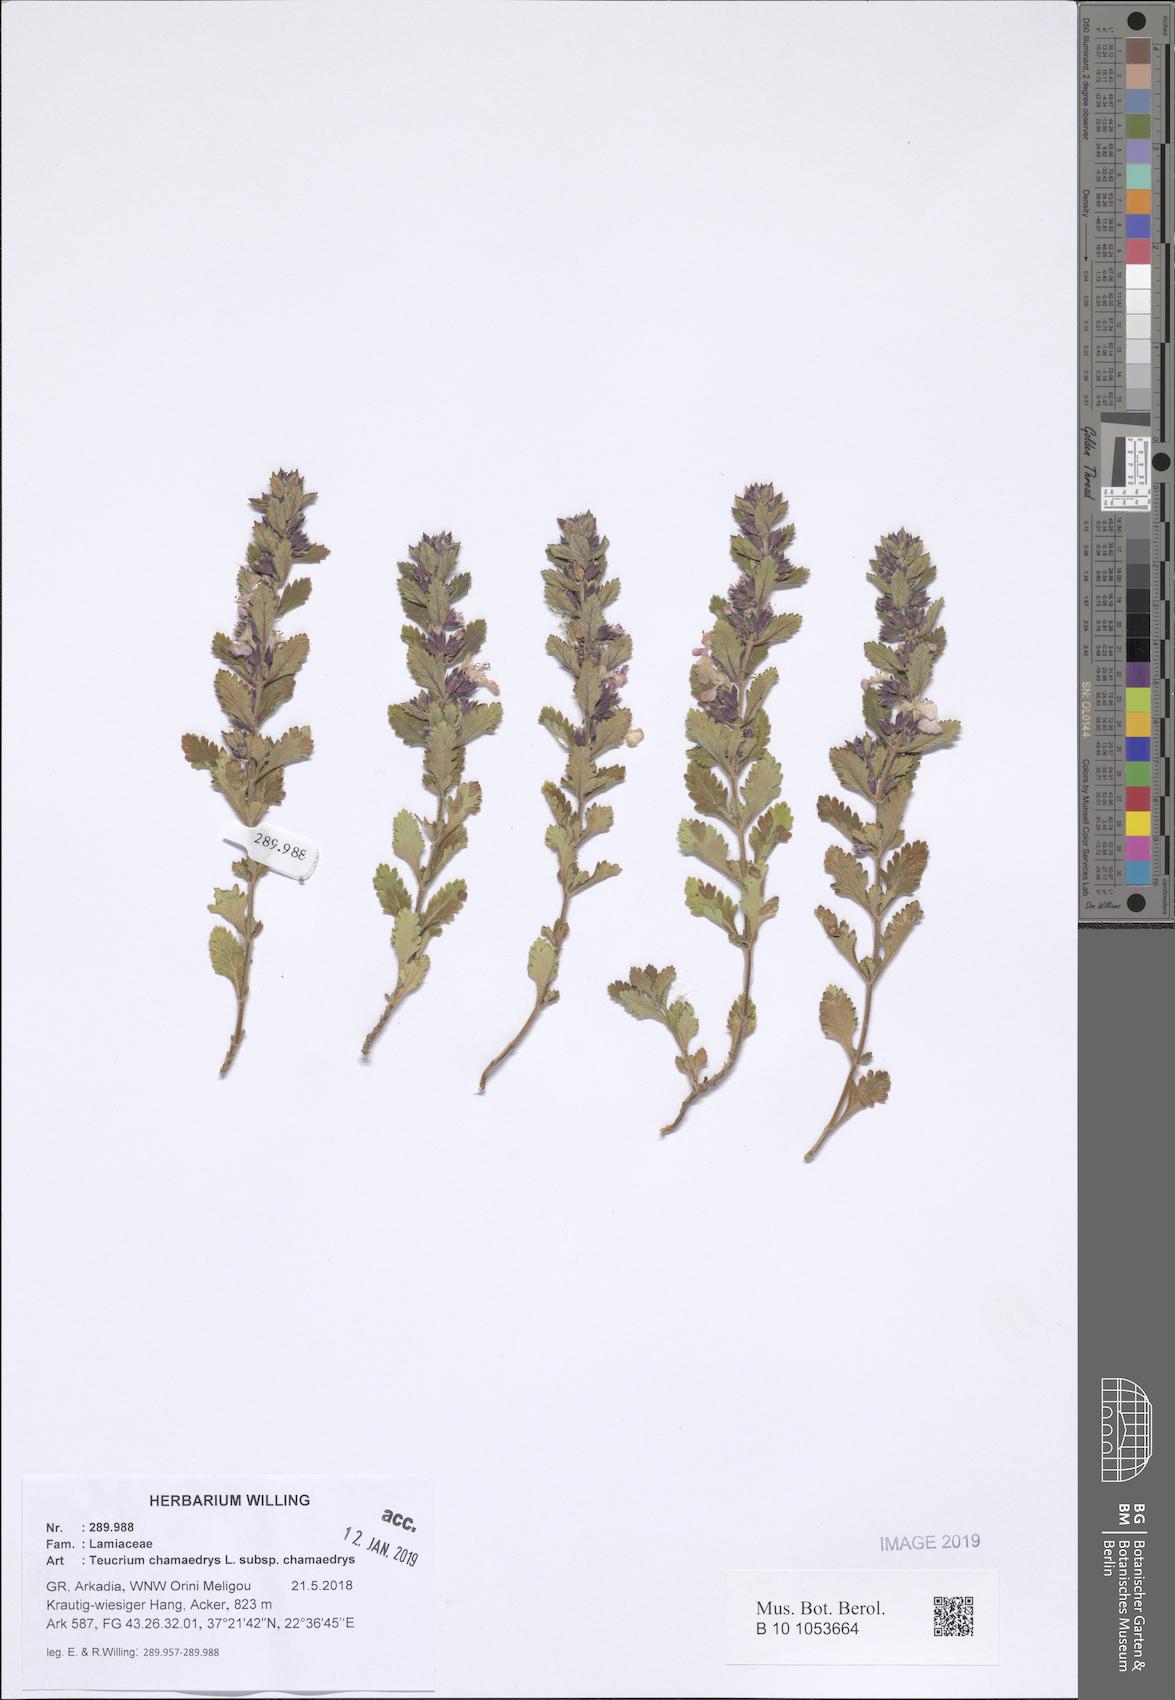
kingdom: Plantae
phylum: Tracheophyta
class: Magnoliopsida
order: Lamiales
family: Lamiaceae
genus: Teucrium
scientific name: Teucrium chamaedrys
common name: Wall germander
